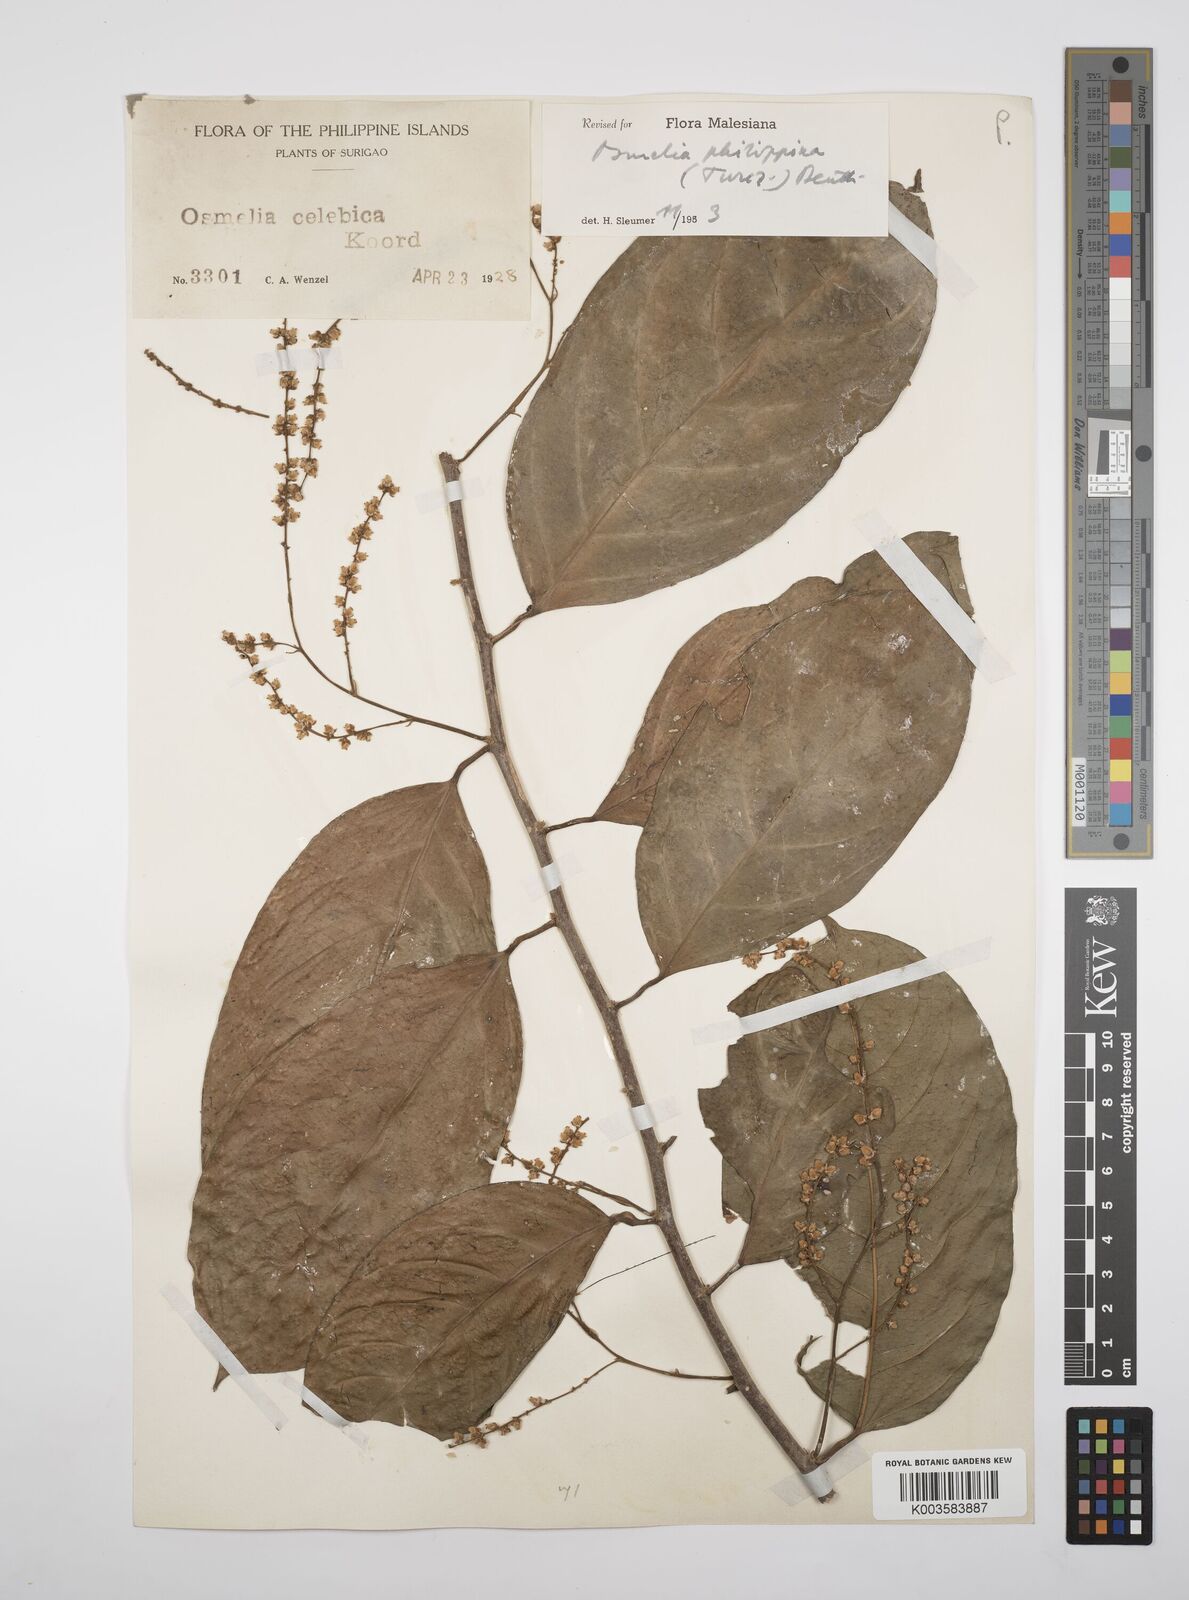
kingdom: Plantae
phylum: Tracheophyta
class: Magnoliopsida
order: Malpighiales
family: Salicaceae
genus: Osmelia
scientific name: Osmelia philippina
